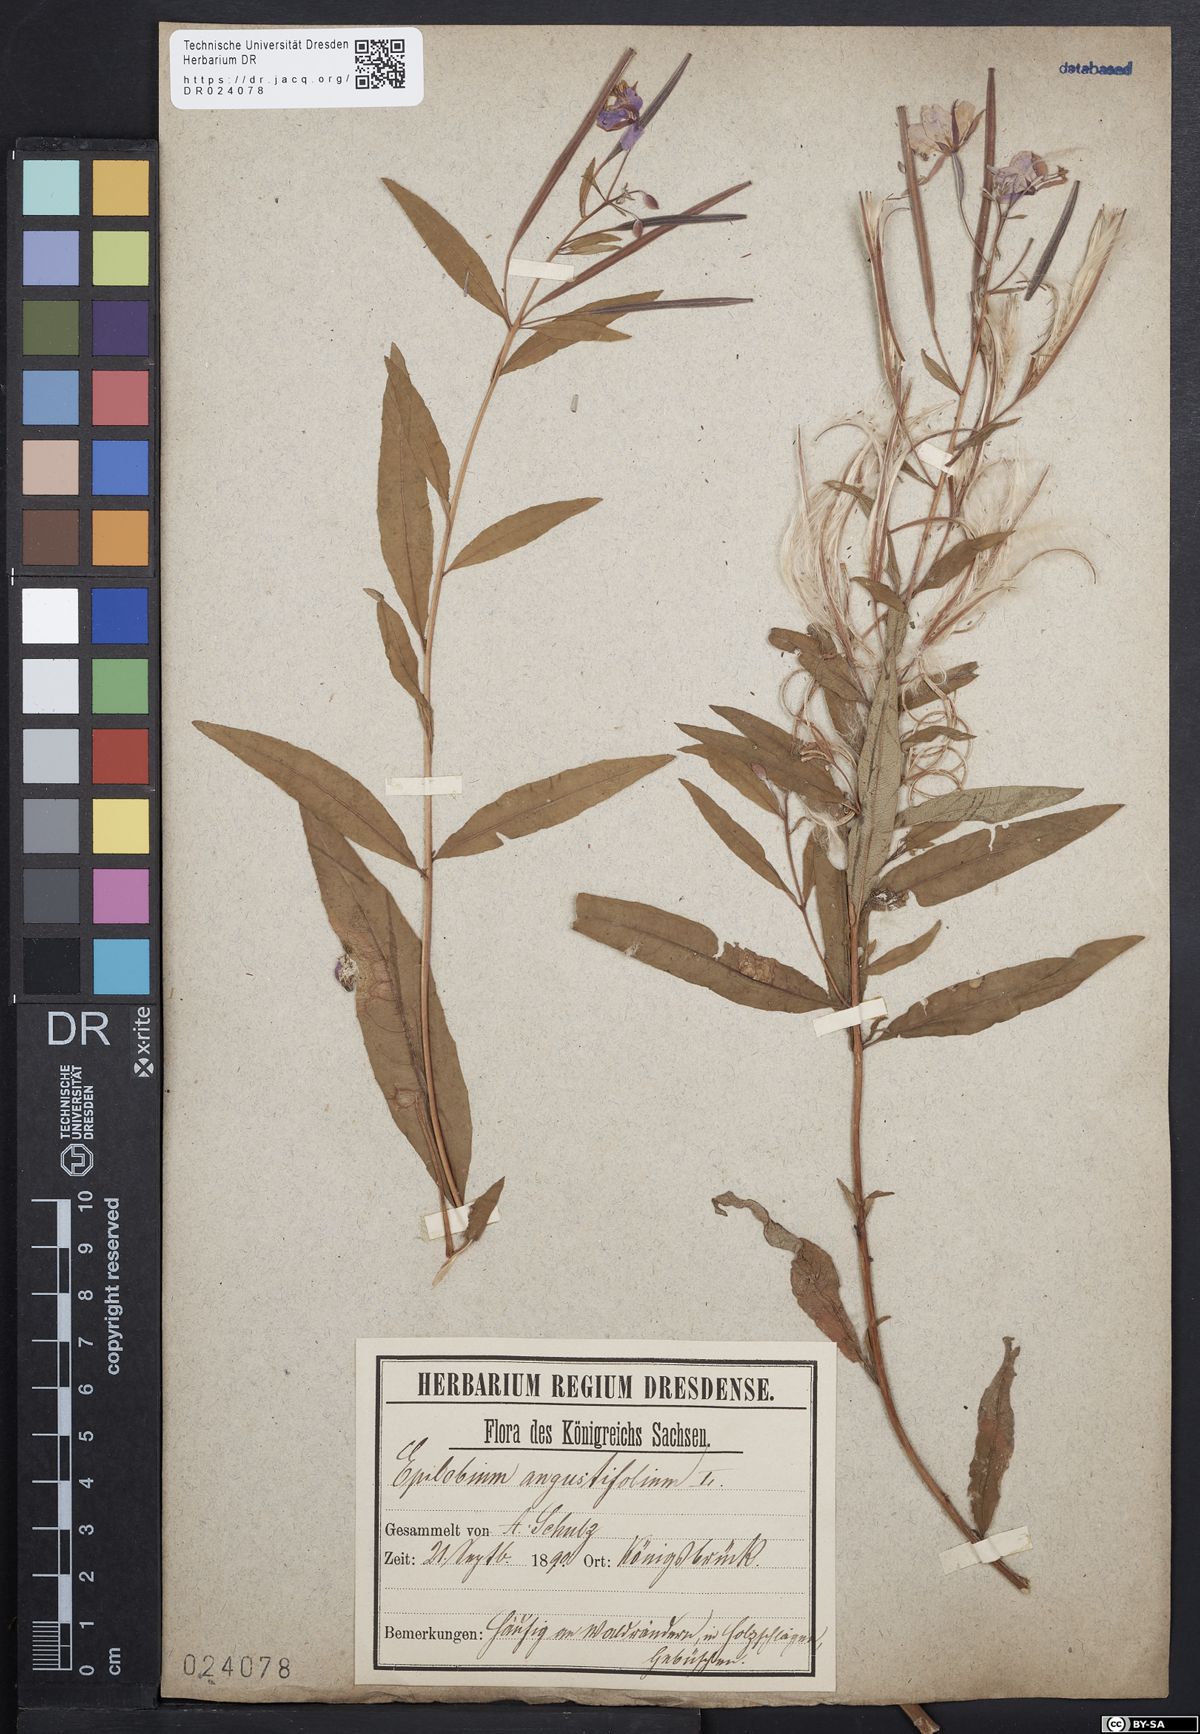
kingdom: Plantae
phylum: Tracheophyta
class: Magnoliopsida
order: Myrtales
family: Onagraceae
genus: Chamaenerion
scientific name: Chamaenerion angustifolium
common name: Fireweed
